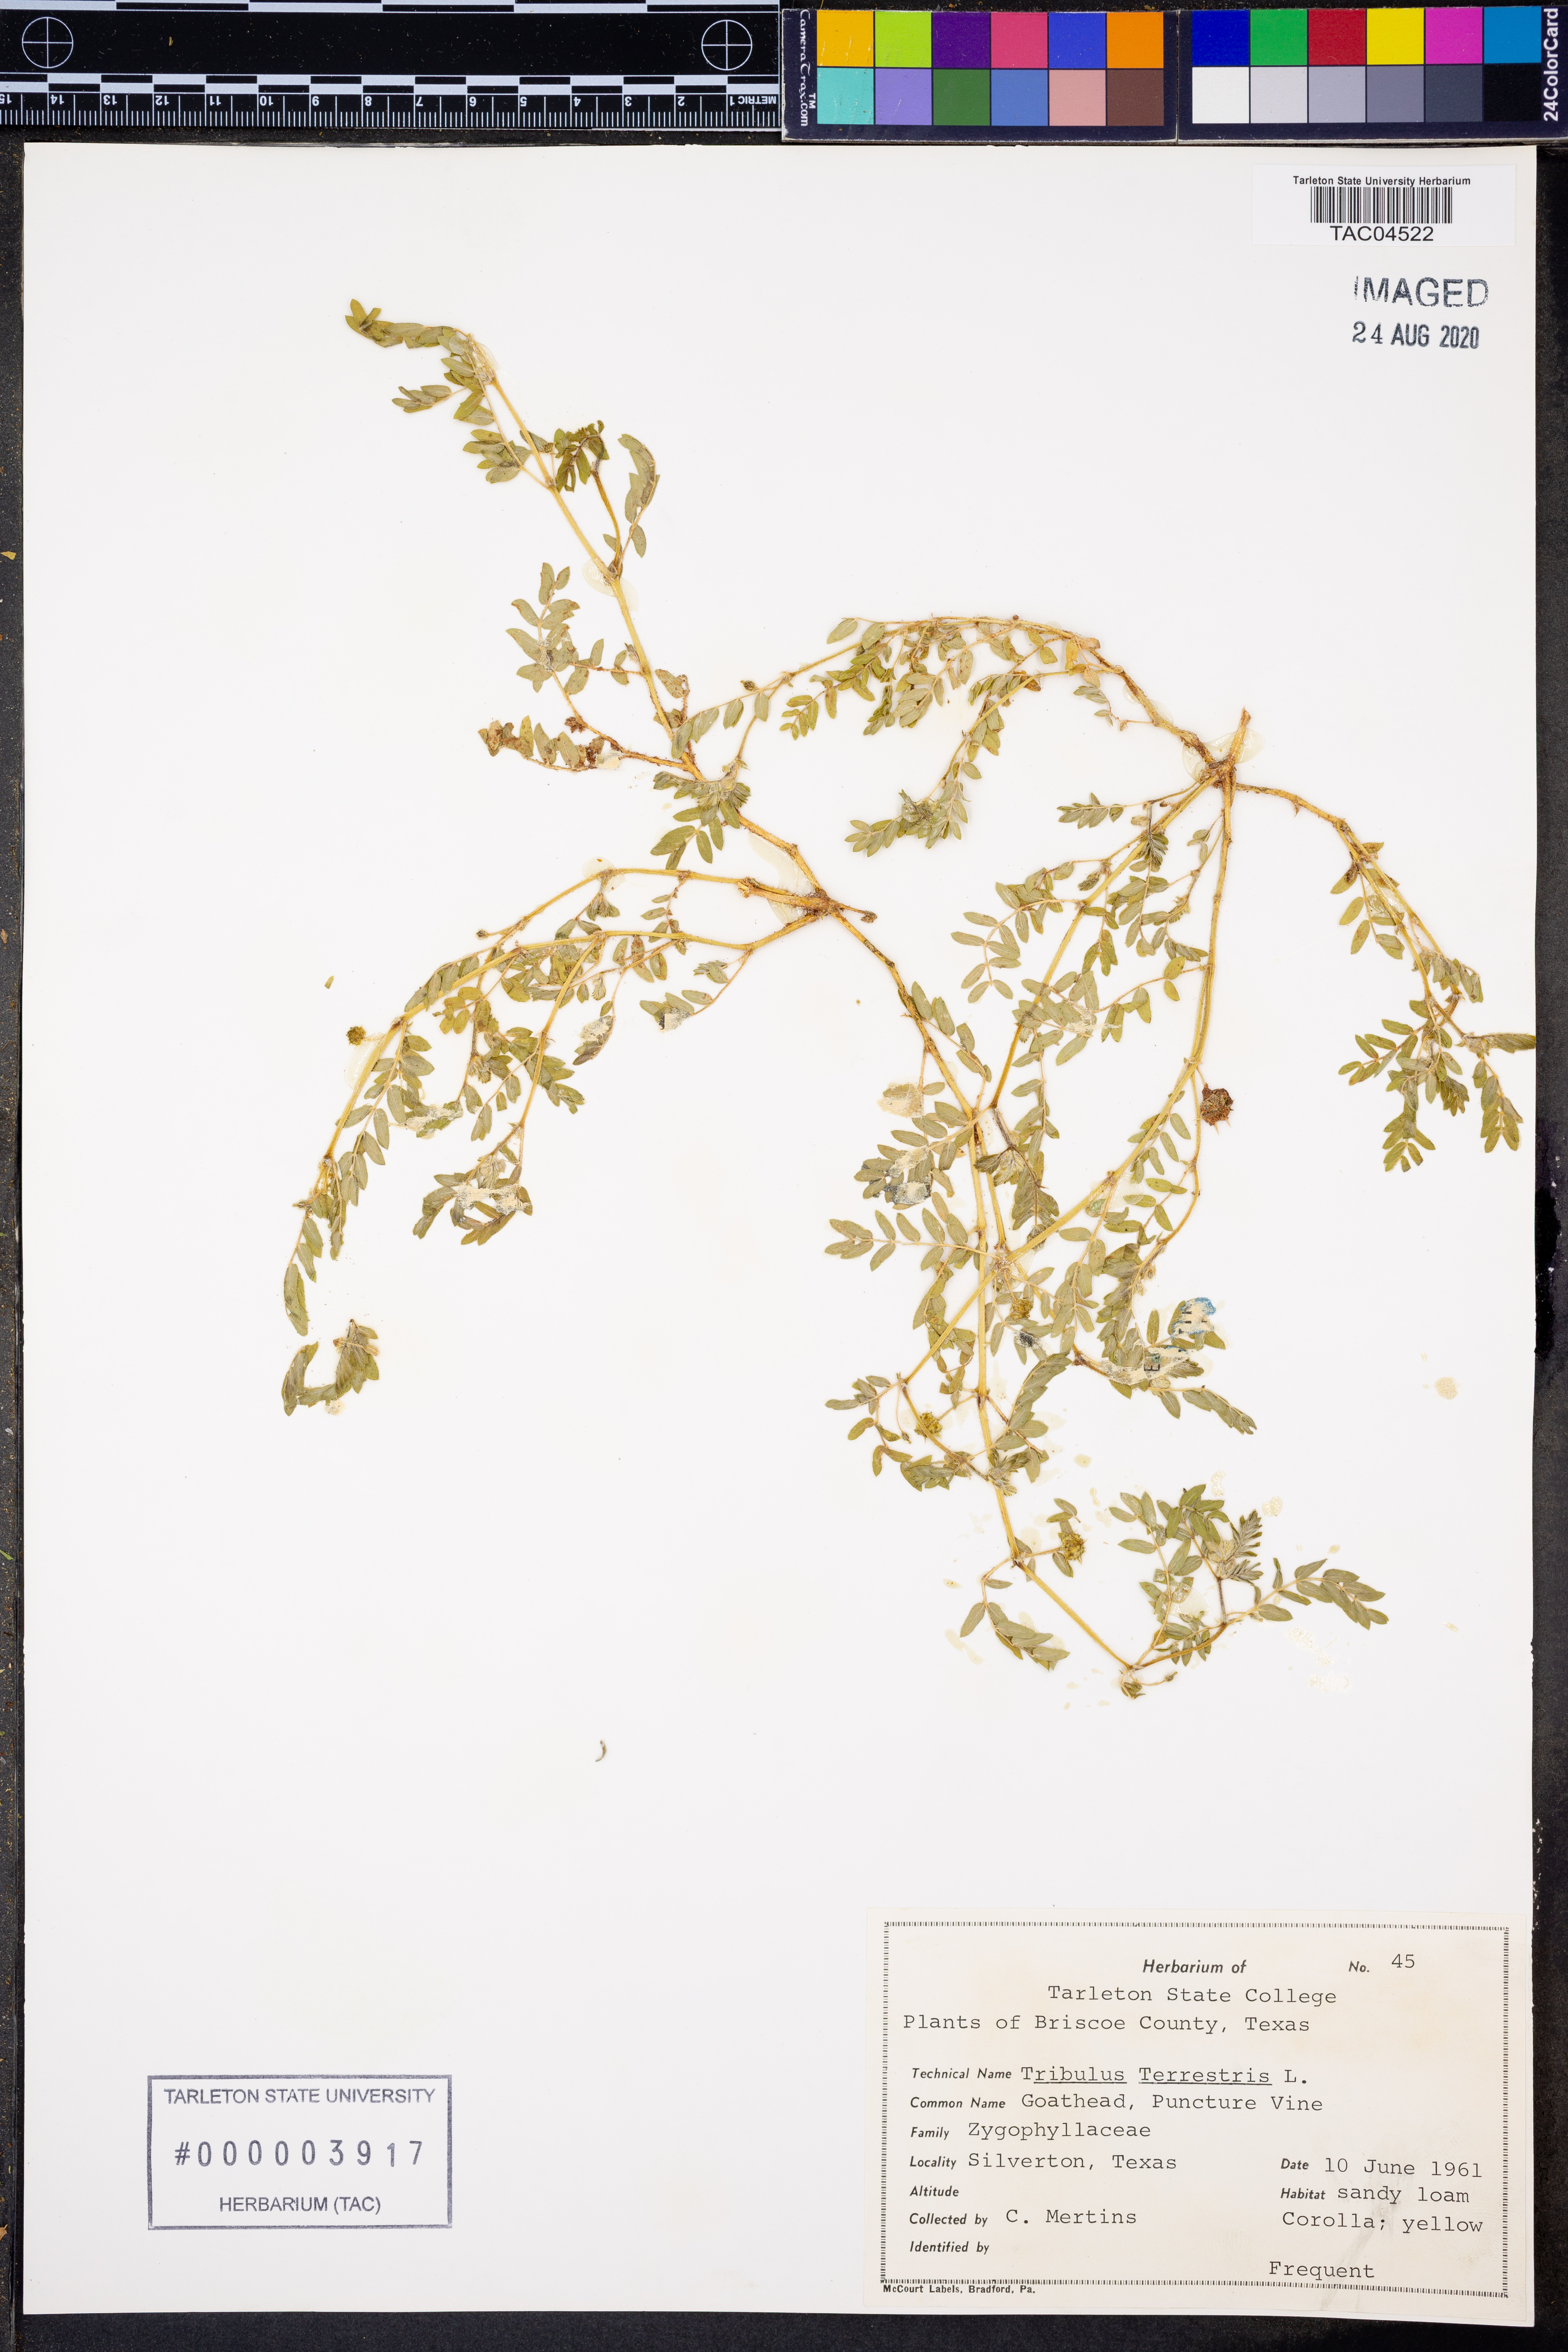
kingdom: Plantae
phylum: Tracheophyta
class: Magnoliopsida
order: Zygophyllales
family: Zygophyllaceae
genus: Tribulus
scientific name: Tribulus terrestris
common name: Puncturevine
